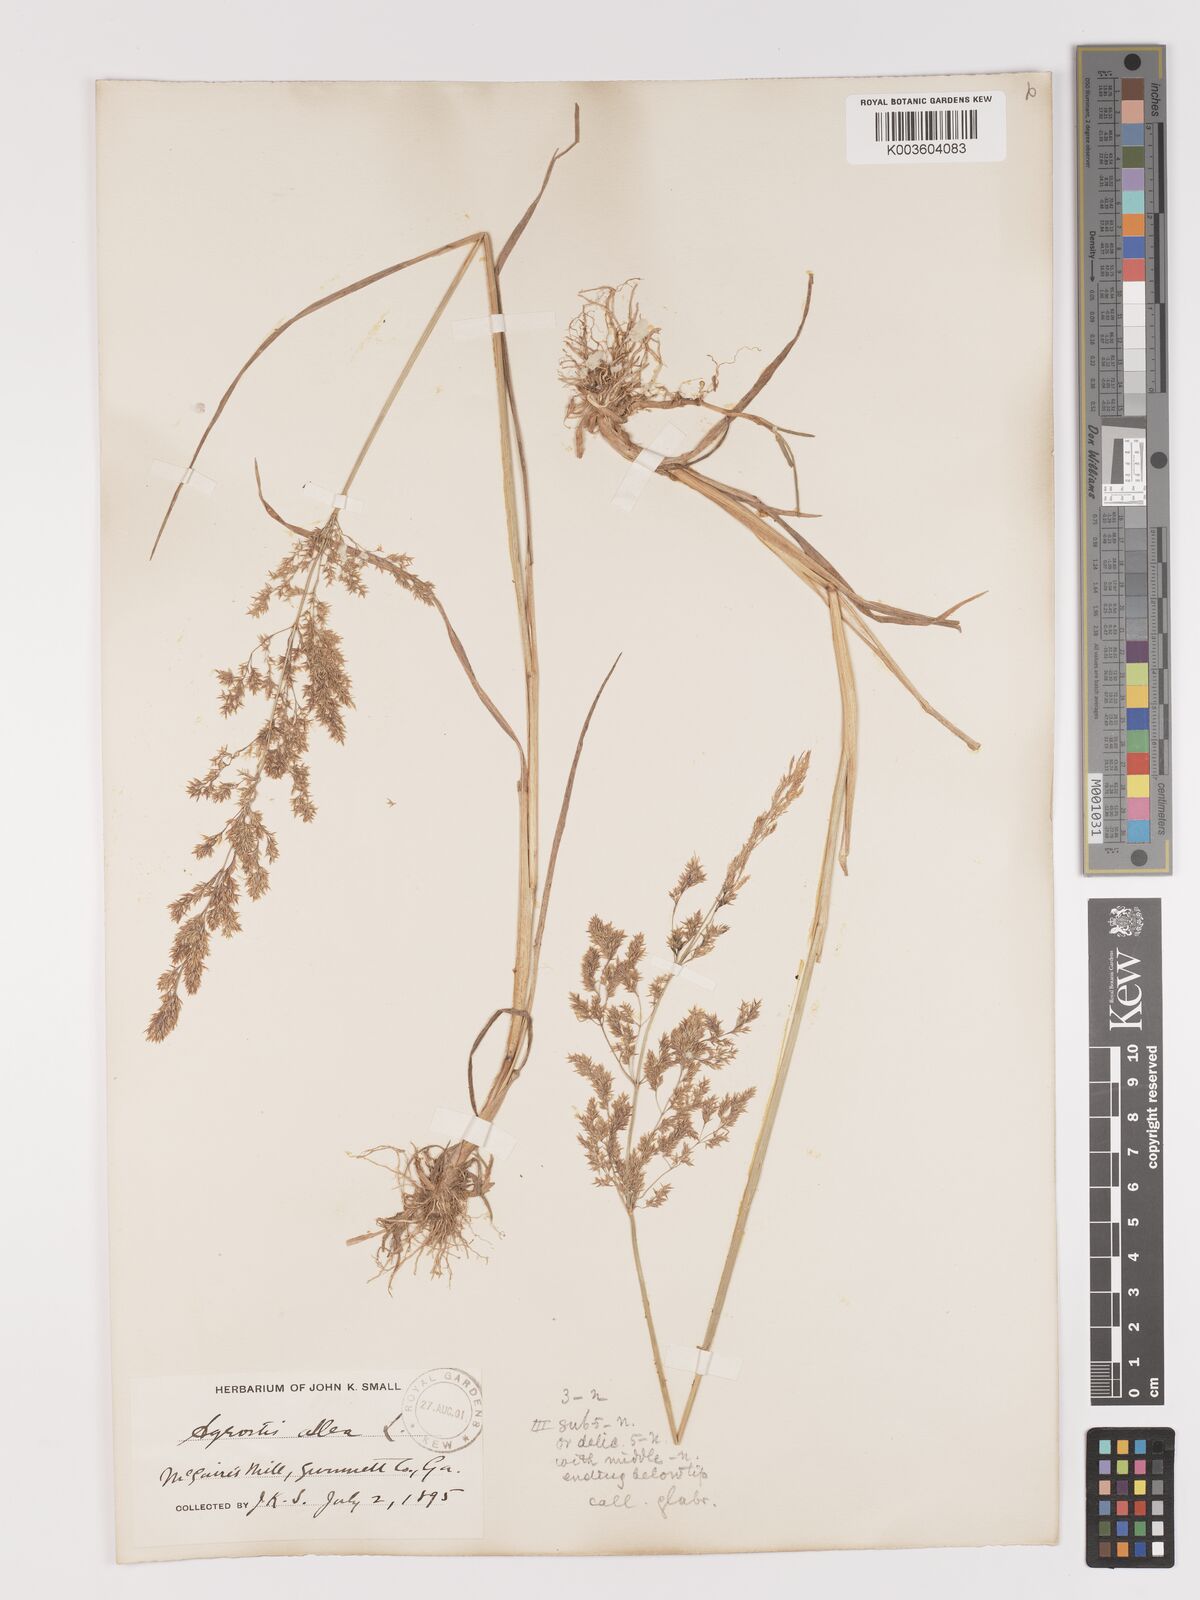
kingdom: Plantae
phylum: Tracheophyta
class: Liliopsida
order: Poales
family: Poaceae
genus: Agrostis
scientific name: Agrostis gigantea
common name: Black bent
